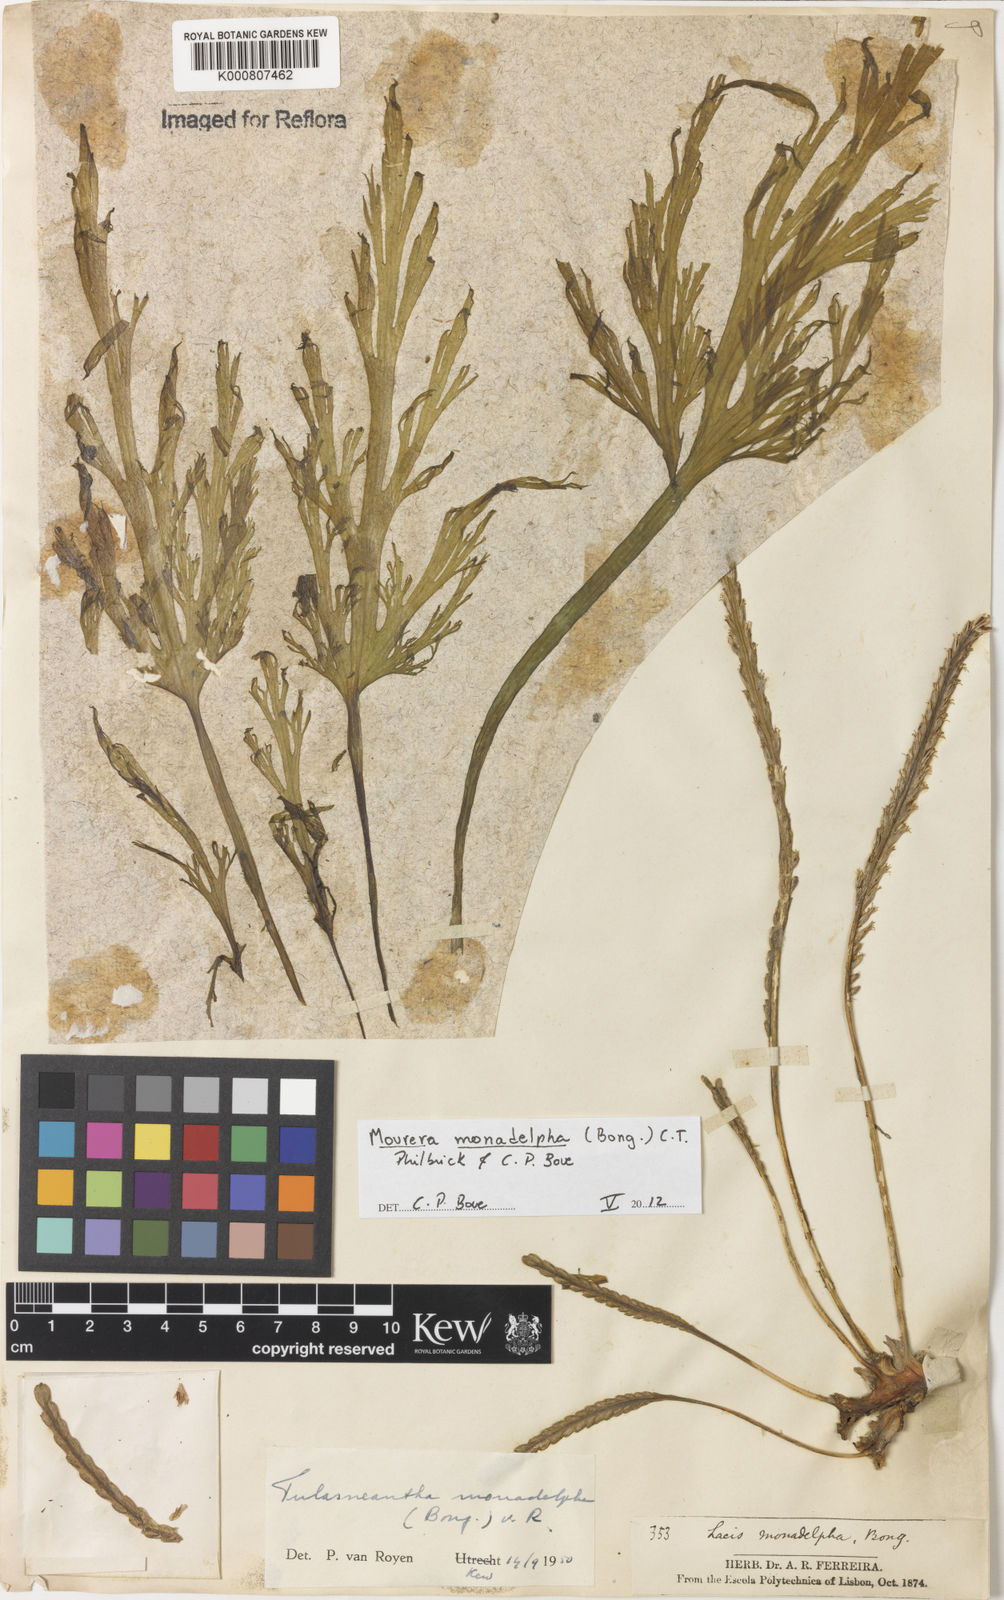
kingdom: Plantae
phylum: Tracheophyta
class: Magnoliopsida
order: Malpighiales
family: Podostemaceae
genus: Mourera
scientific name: Mourera monadelpha
